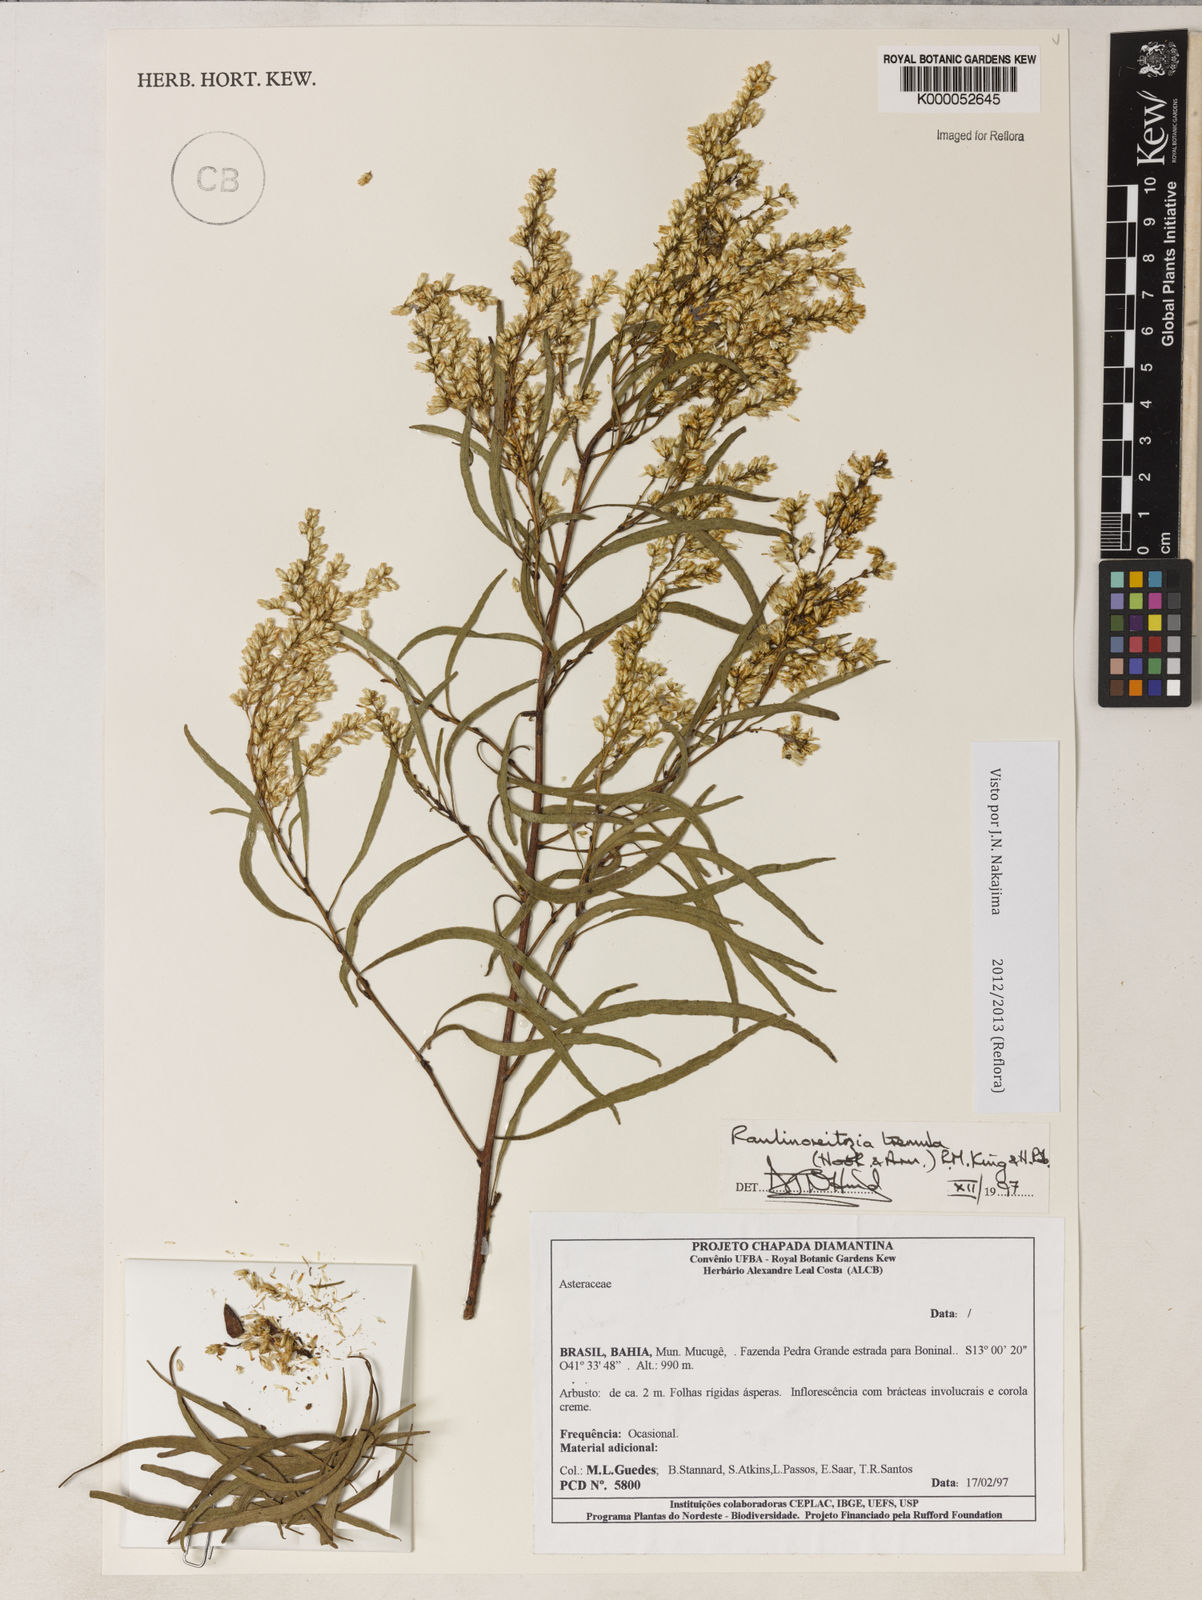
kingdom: Plantae
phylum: Tracheophyta
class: Magnoliopsida
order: Asterales
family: Asteraceae
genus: Raulinoreitzia
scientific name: Raulinoreitzia tremula
